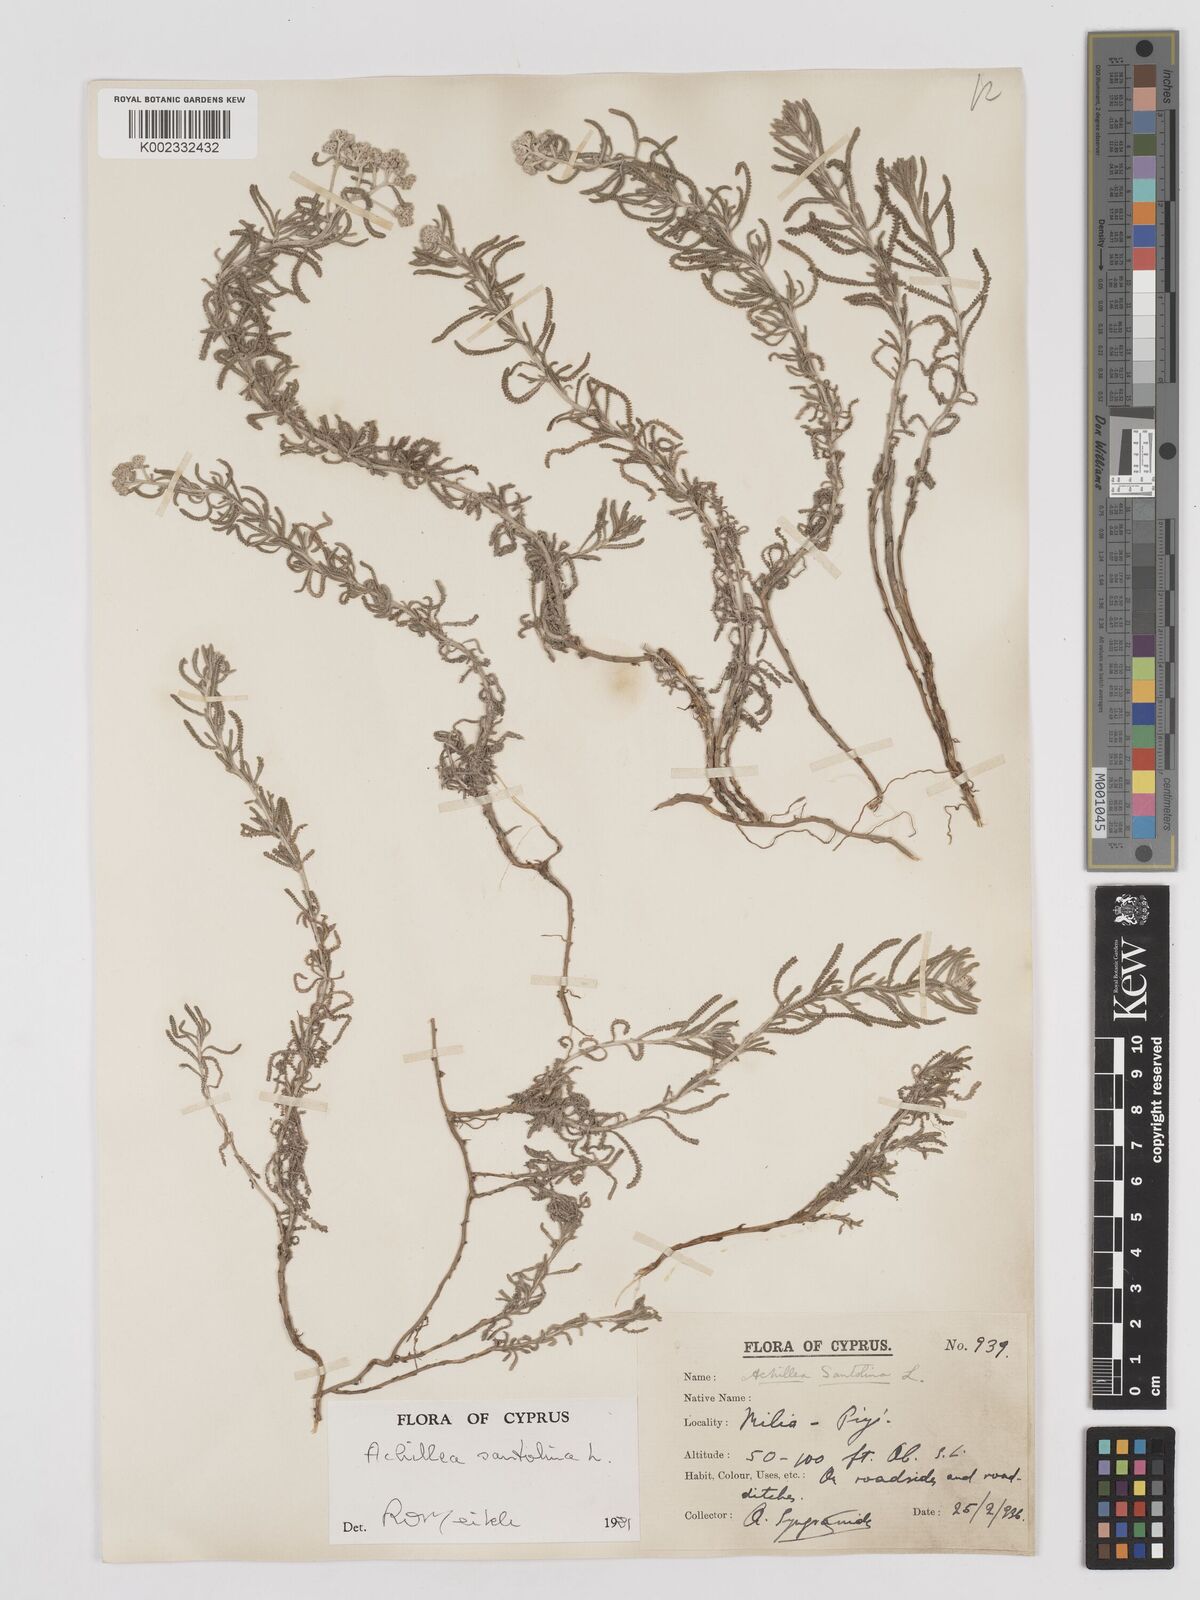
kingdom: Plantae
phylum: Tracheophyta
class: Magnoliopsida
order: Asterales
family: Asteraceae
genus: Achillea
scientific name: Achillea tenuifolia
